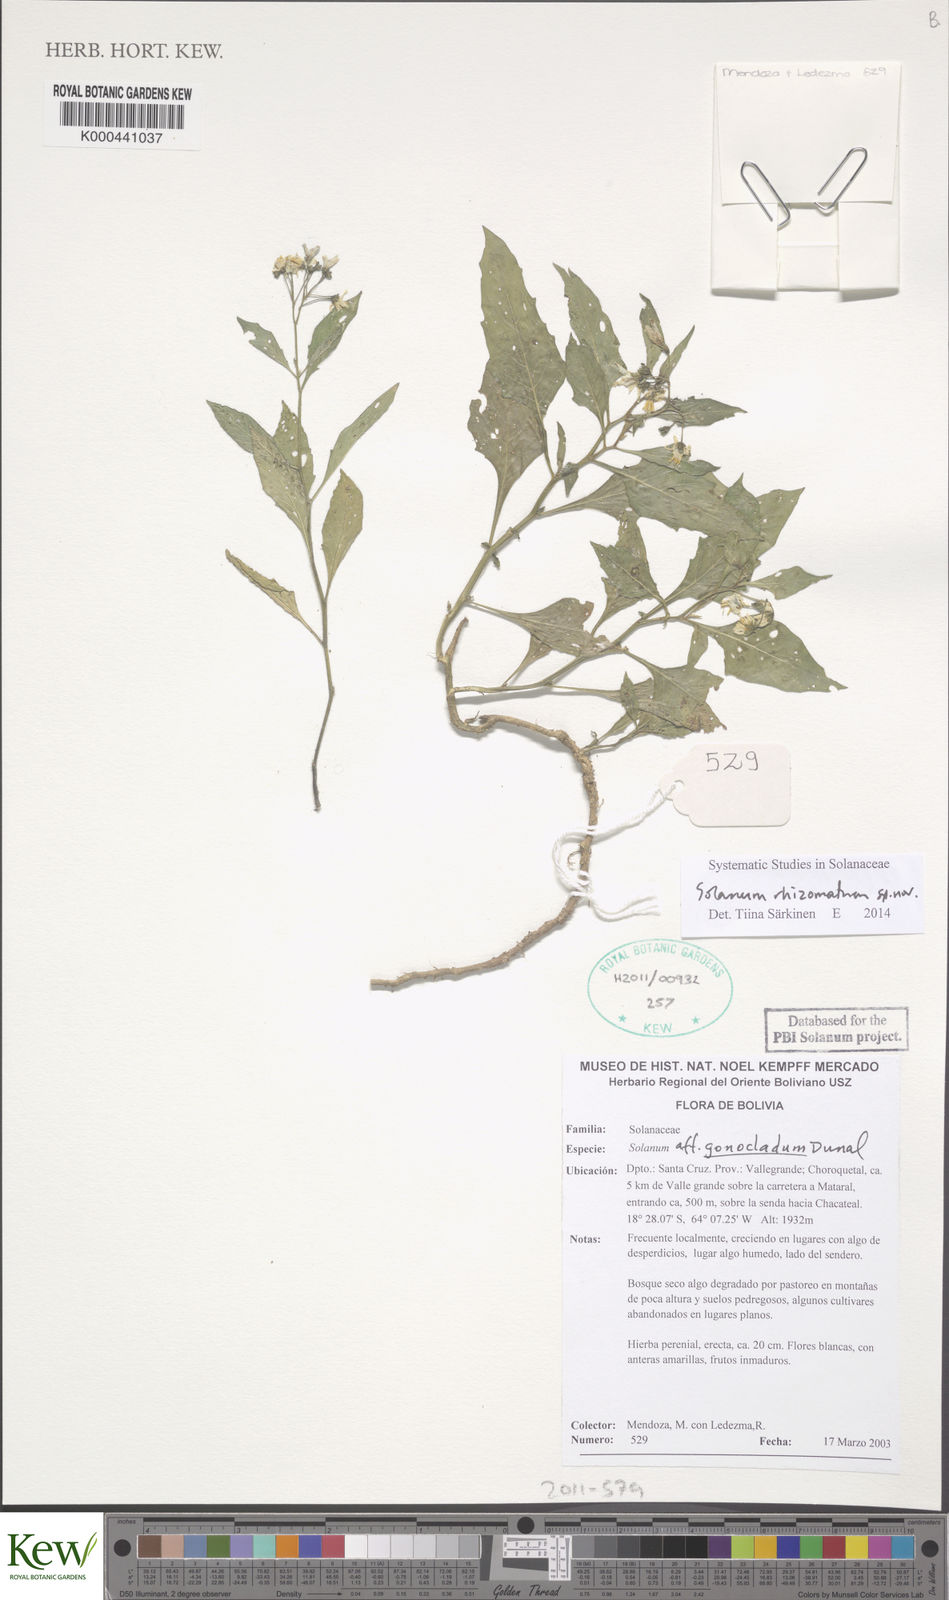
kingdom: Plantae
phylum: Tracheophyta
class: Magnoliopsida
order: Solanales
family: Solanaceae
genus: Solanum
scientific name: Solanum
